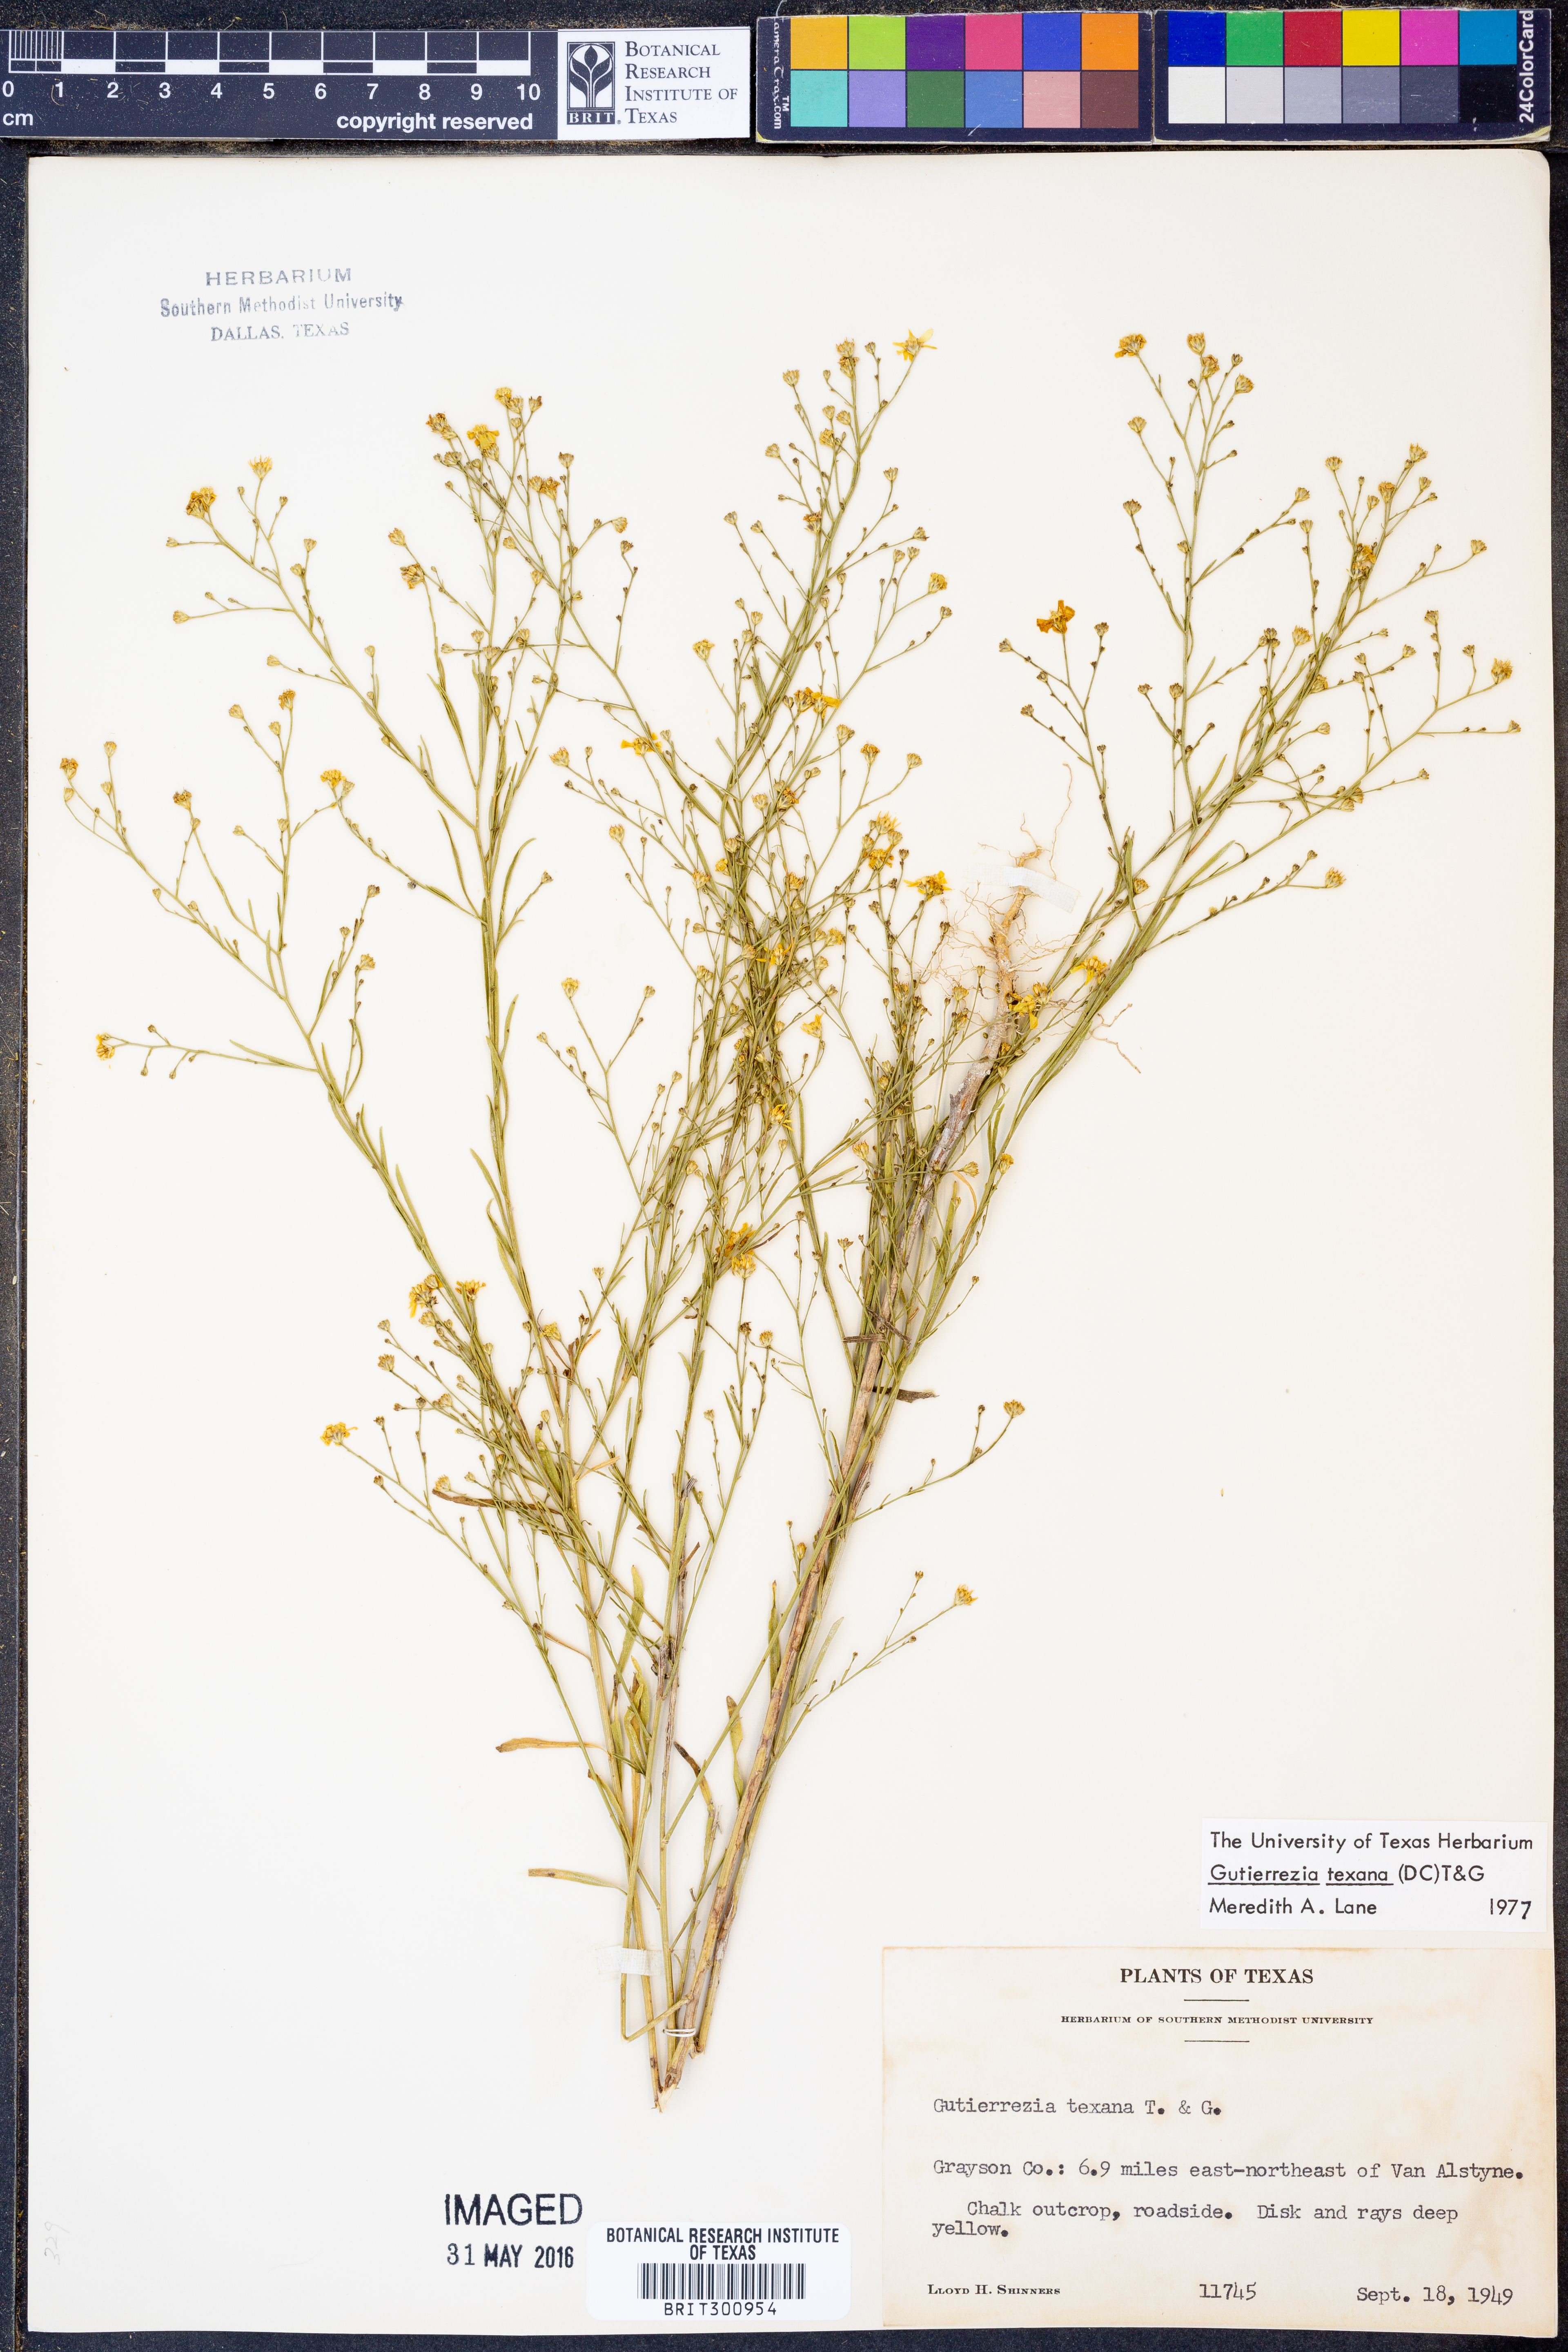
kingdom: Plantae
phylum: Tracheophyta
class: Magnoliopsida
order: Asterales
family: Asteraceae
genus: Gutierrezia
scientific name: Gutierrezia texana
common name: Texas snakeweed
